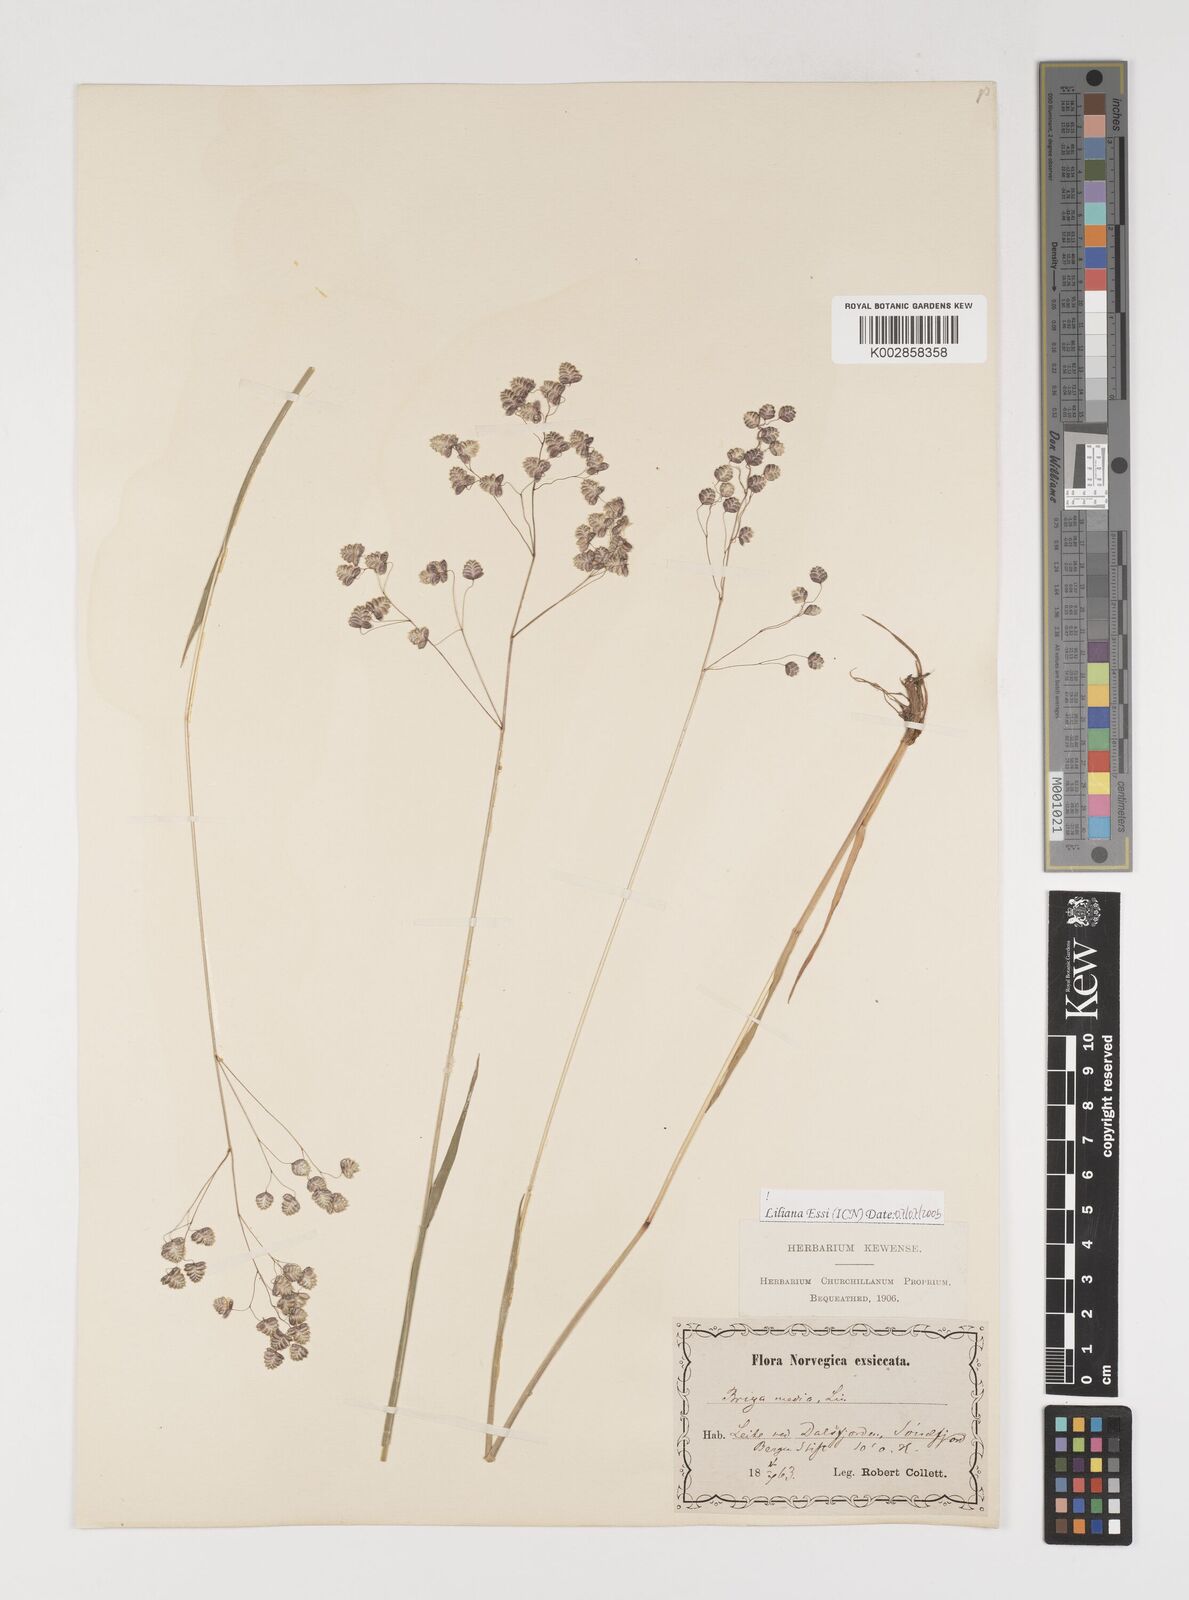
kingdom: Plantae
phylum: Tracheophyta
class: Liliopsida
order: Poales
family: Poaceae
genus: Briza
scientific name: Briza media
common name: Quaking grass
